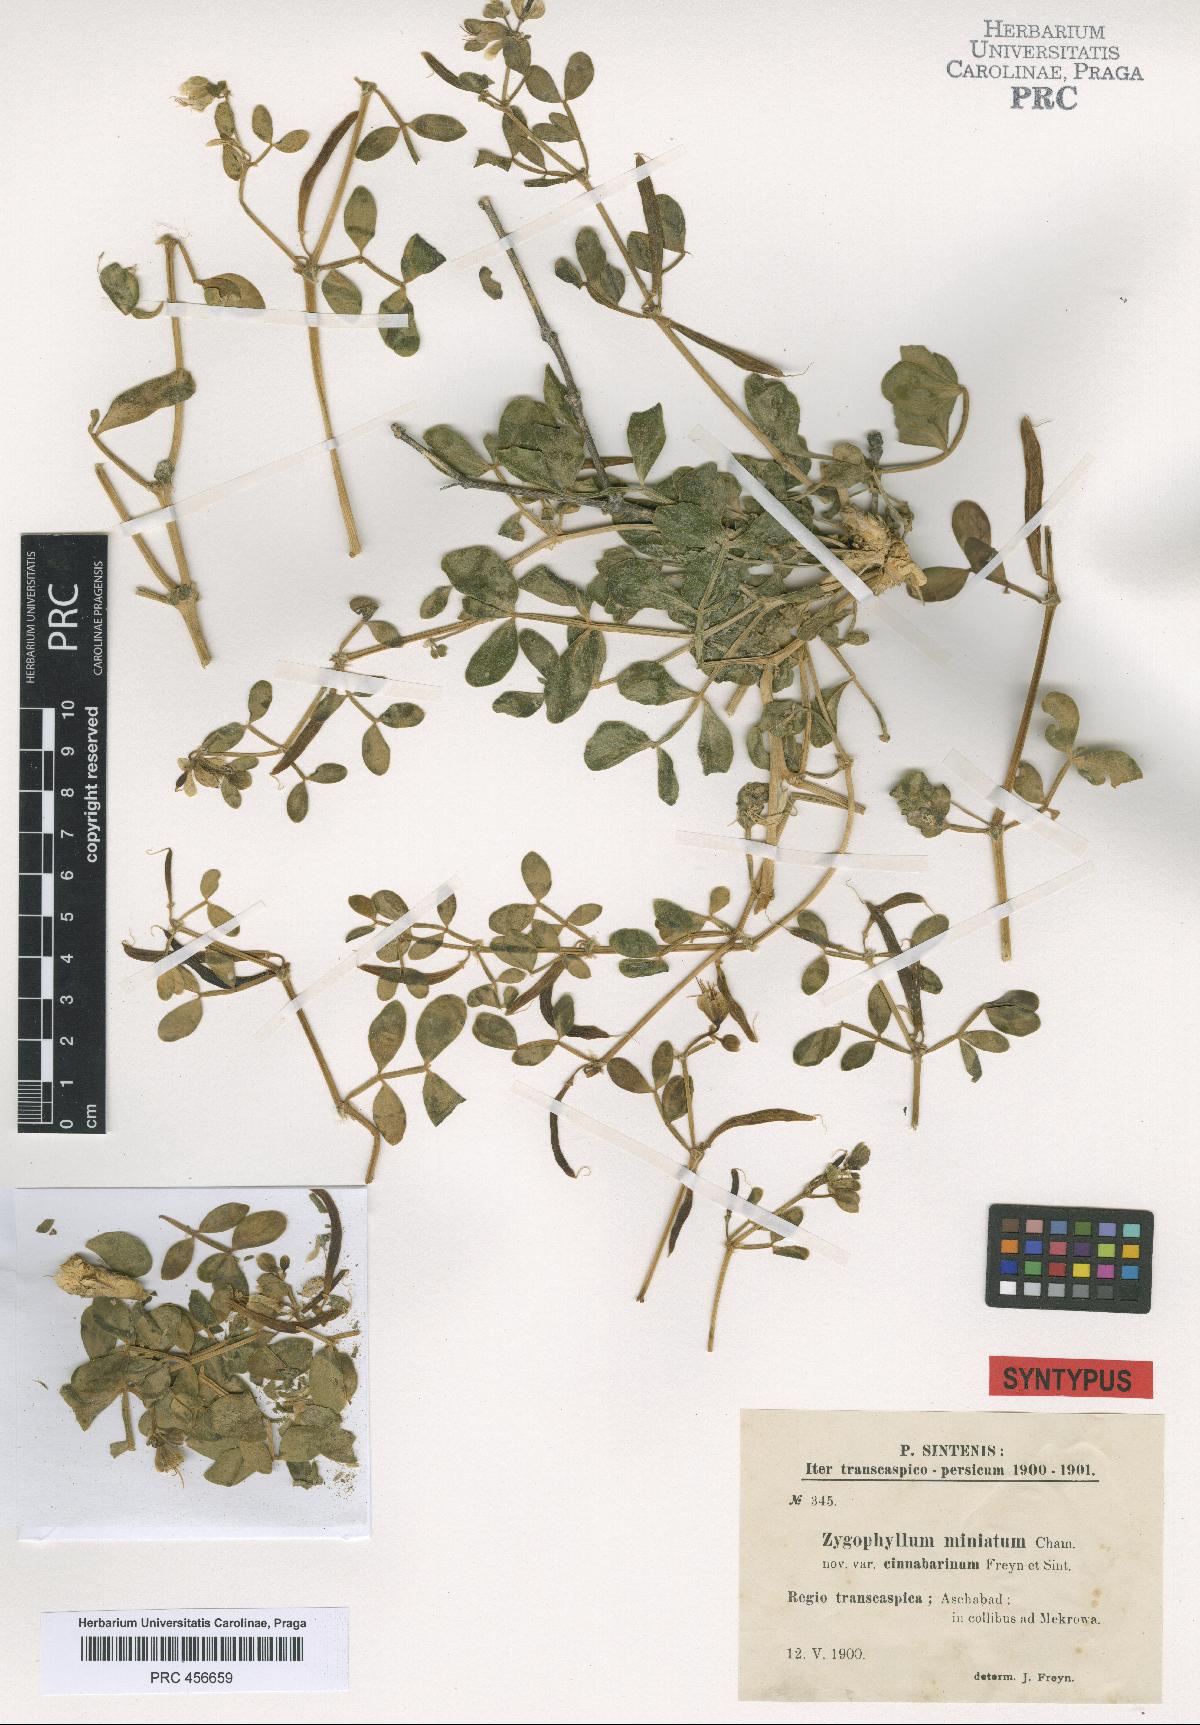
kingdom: Plantae
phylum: Tracheophyta
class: Magnoliopsida
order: Zygophyllales
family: Zygophyllaceae
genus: Zygophyllum
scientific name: Zygophyllum miniatum
